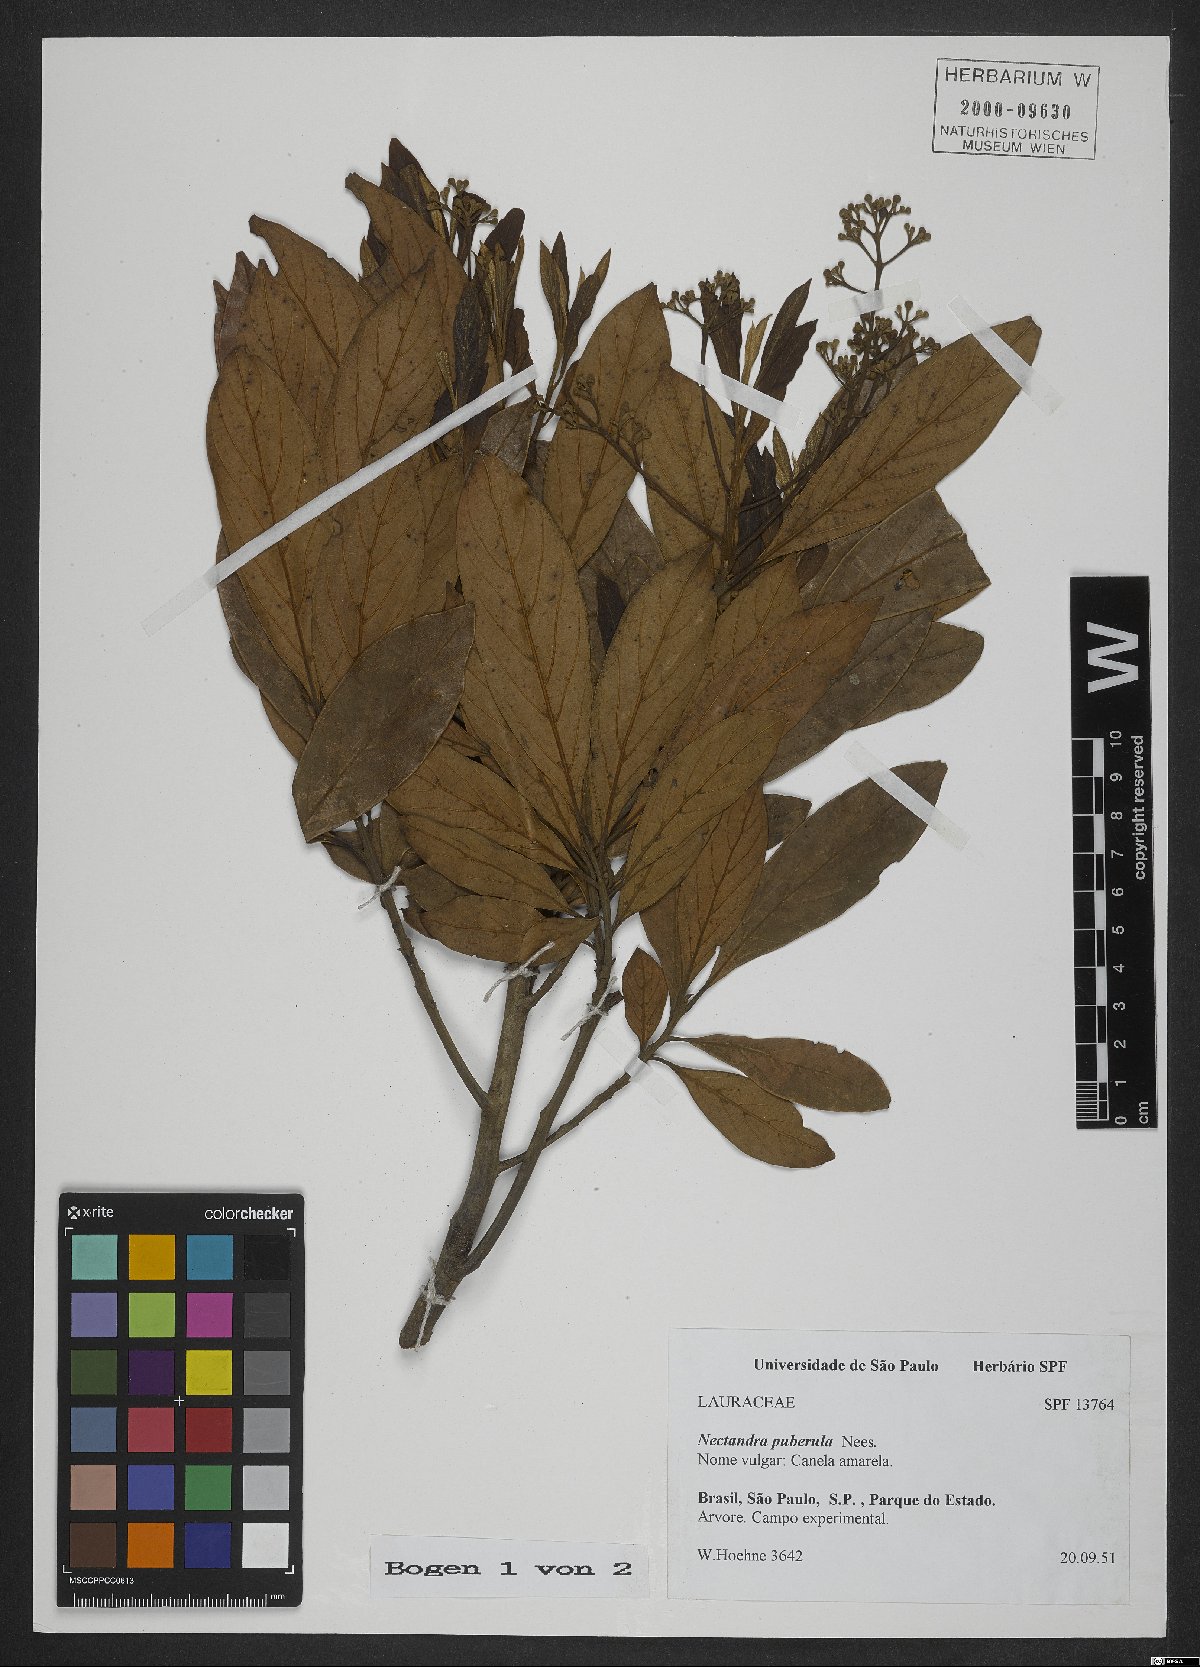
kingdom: Plantae
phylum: Tracheophyta
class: Magnoliopsida
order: Laurales
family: Lauraceae
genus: Nectandra
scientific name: Nectandra puberula
